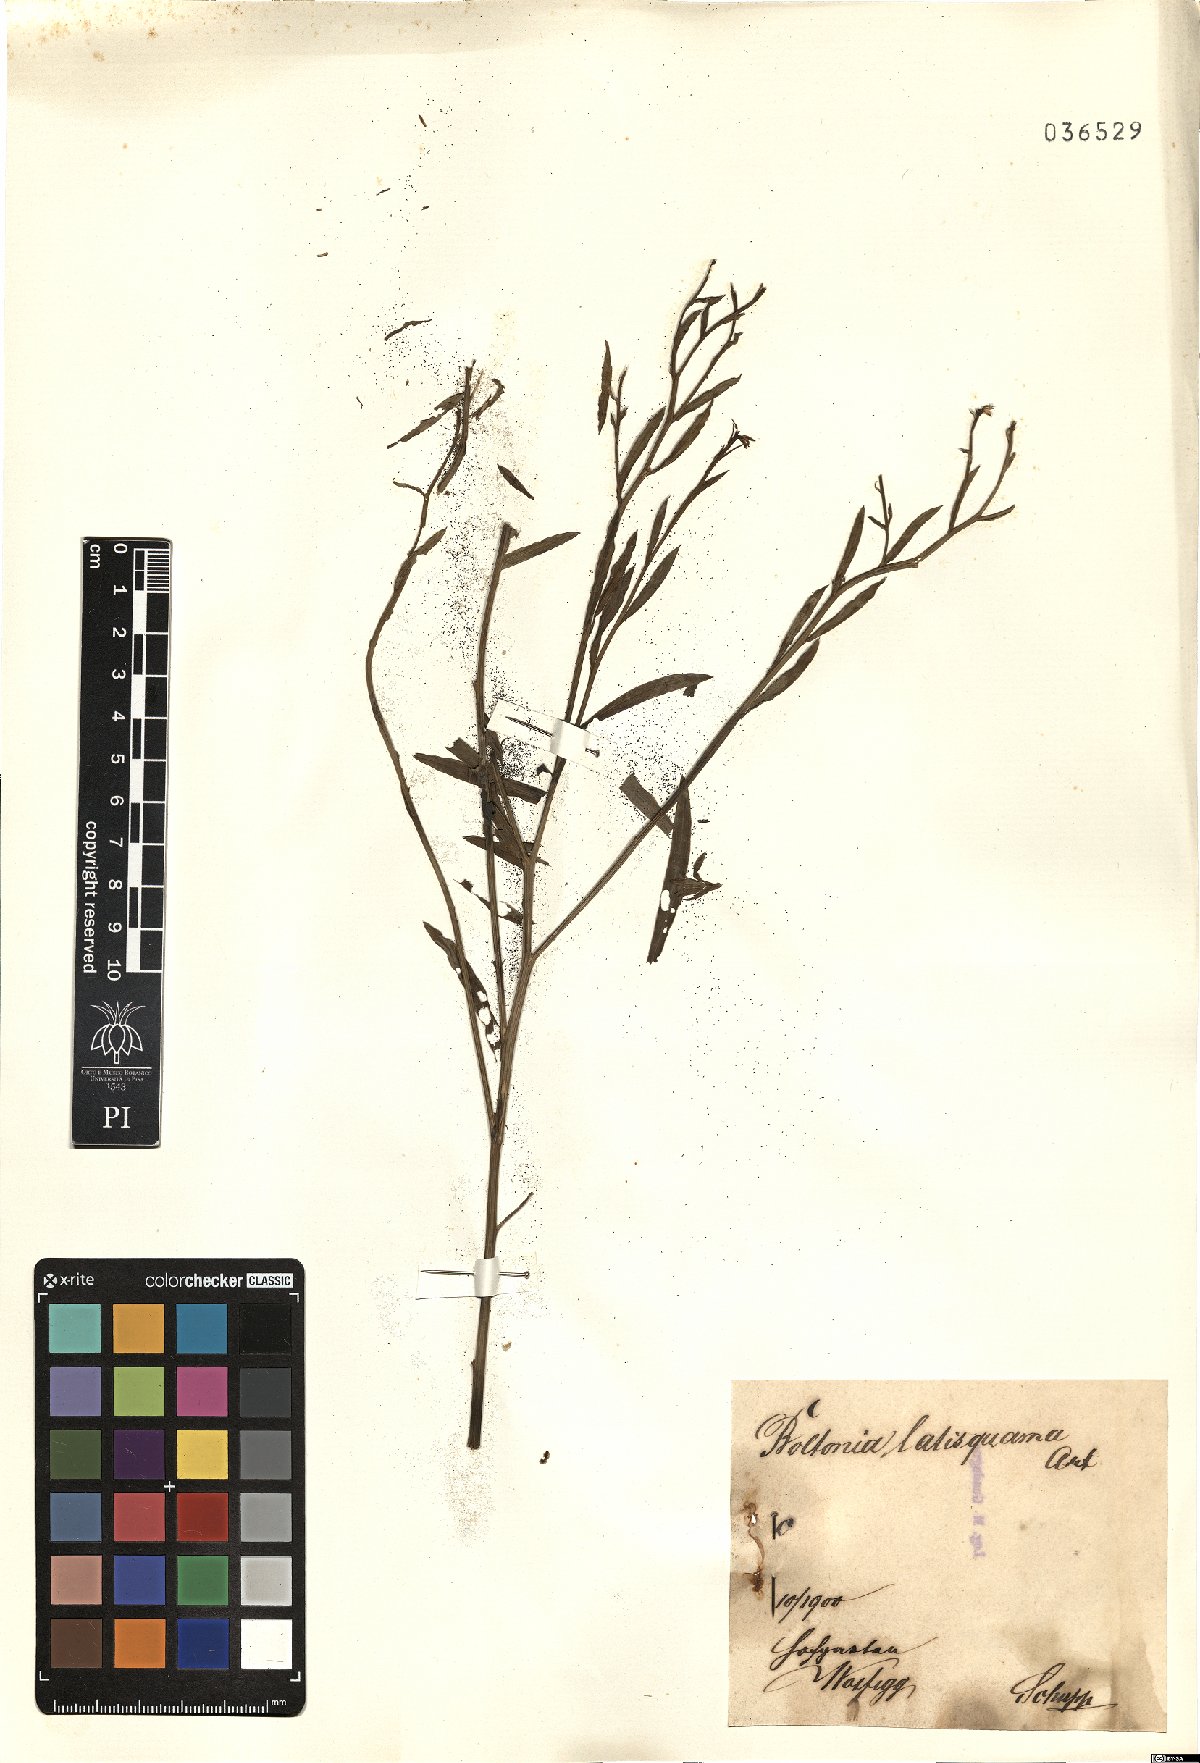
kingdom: Plantae
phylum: Tracheophyta
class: Magnoliopsida
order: Asterales
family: Asteraceae
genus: Boltonia
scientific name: Boltonia
